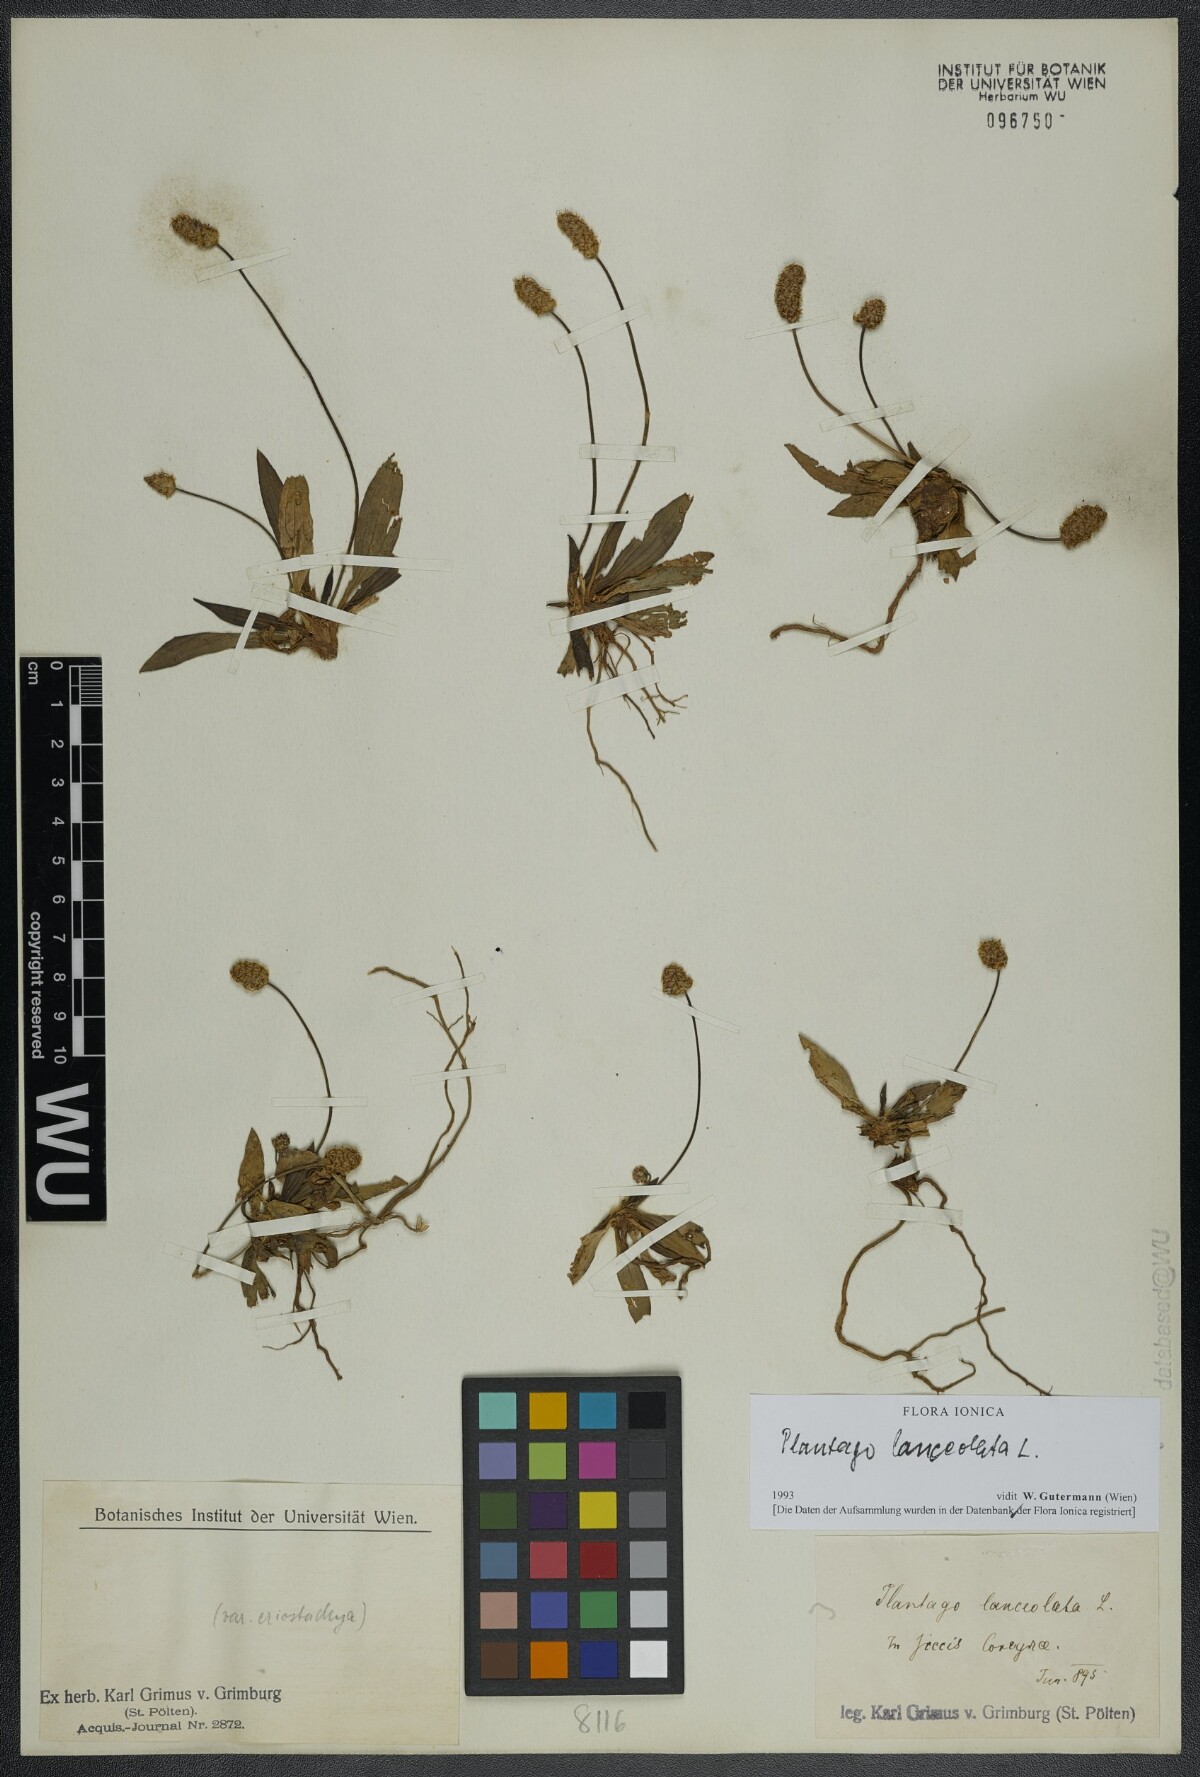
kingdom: Plantae
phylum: Tracheophyta
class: Magnoliopsida
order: Lamiales
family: Plantaginaceae
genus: Plantago
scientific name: Plantago lanceolata
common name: Ribwort plantain
